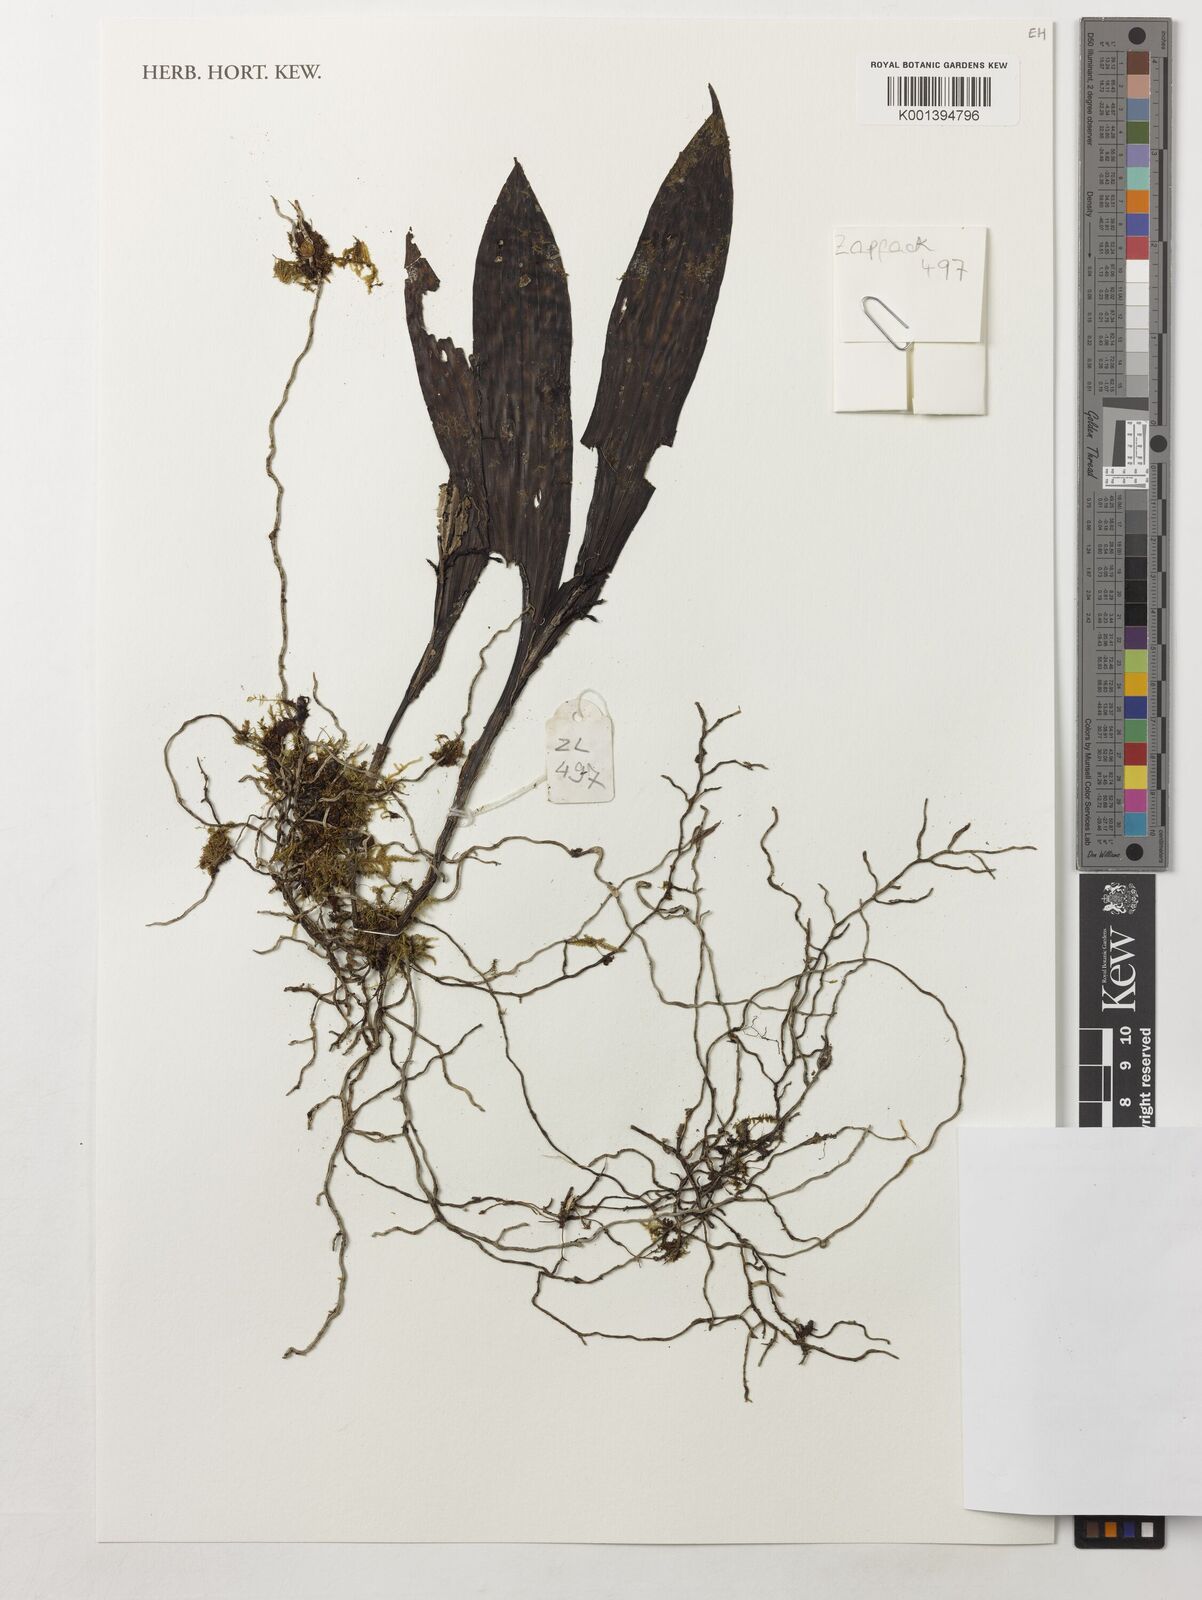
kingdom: Plantae
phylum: Tracheophyta
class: Liliopsida
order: Asparagales
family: Orchidaceae
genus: Polystachya
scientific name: Polystachya
